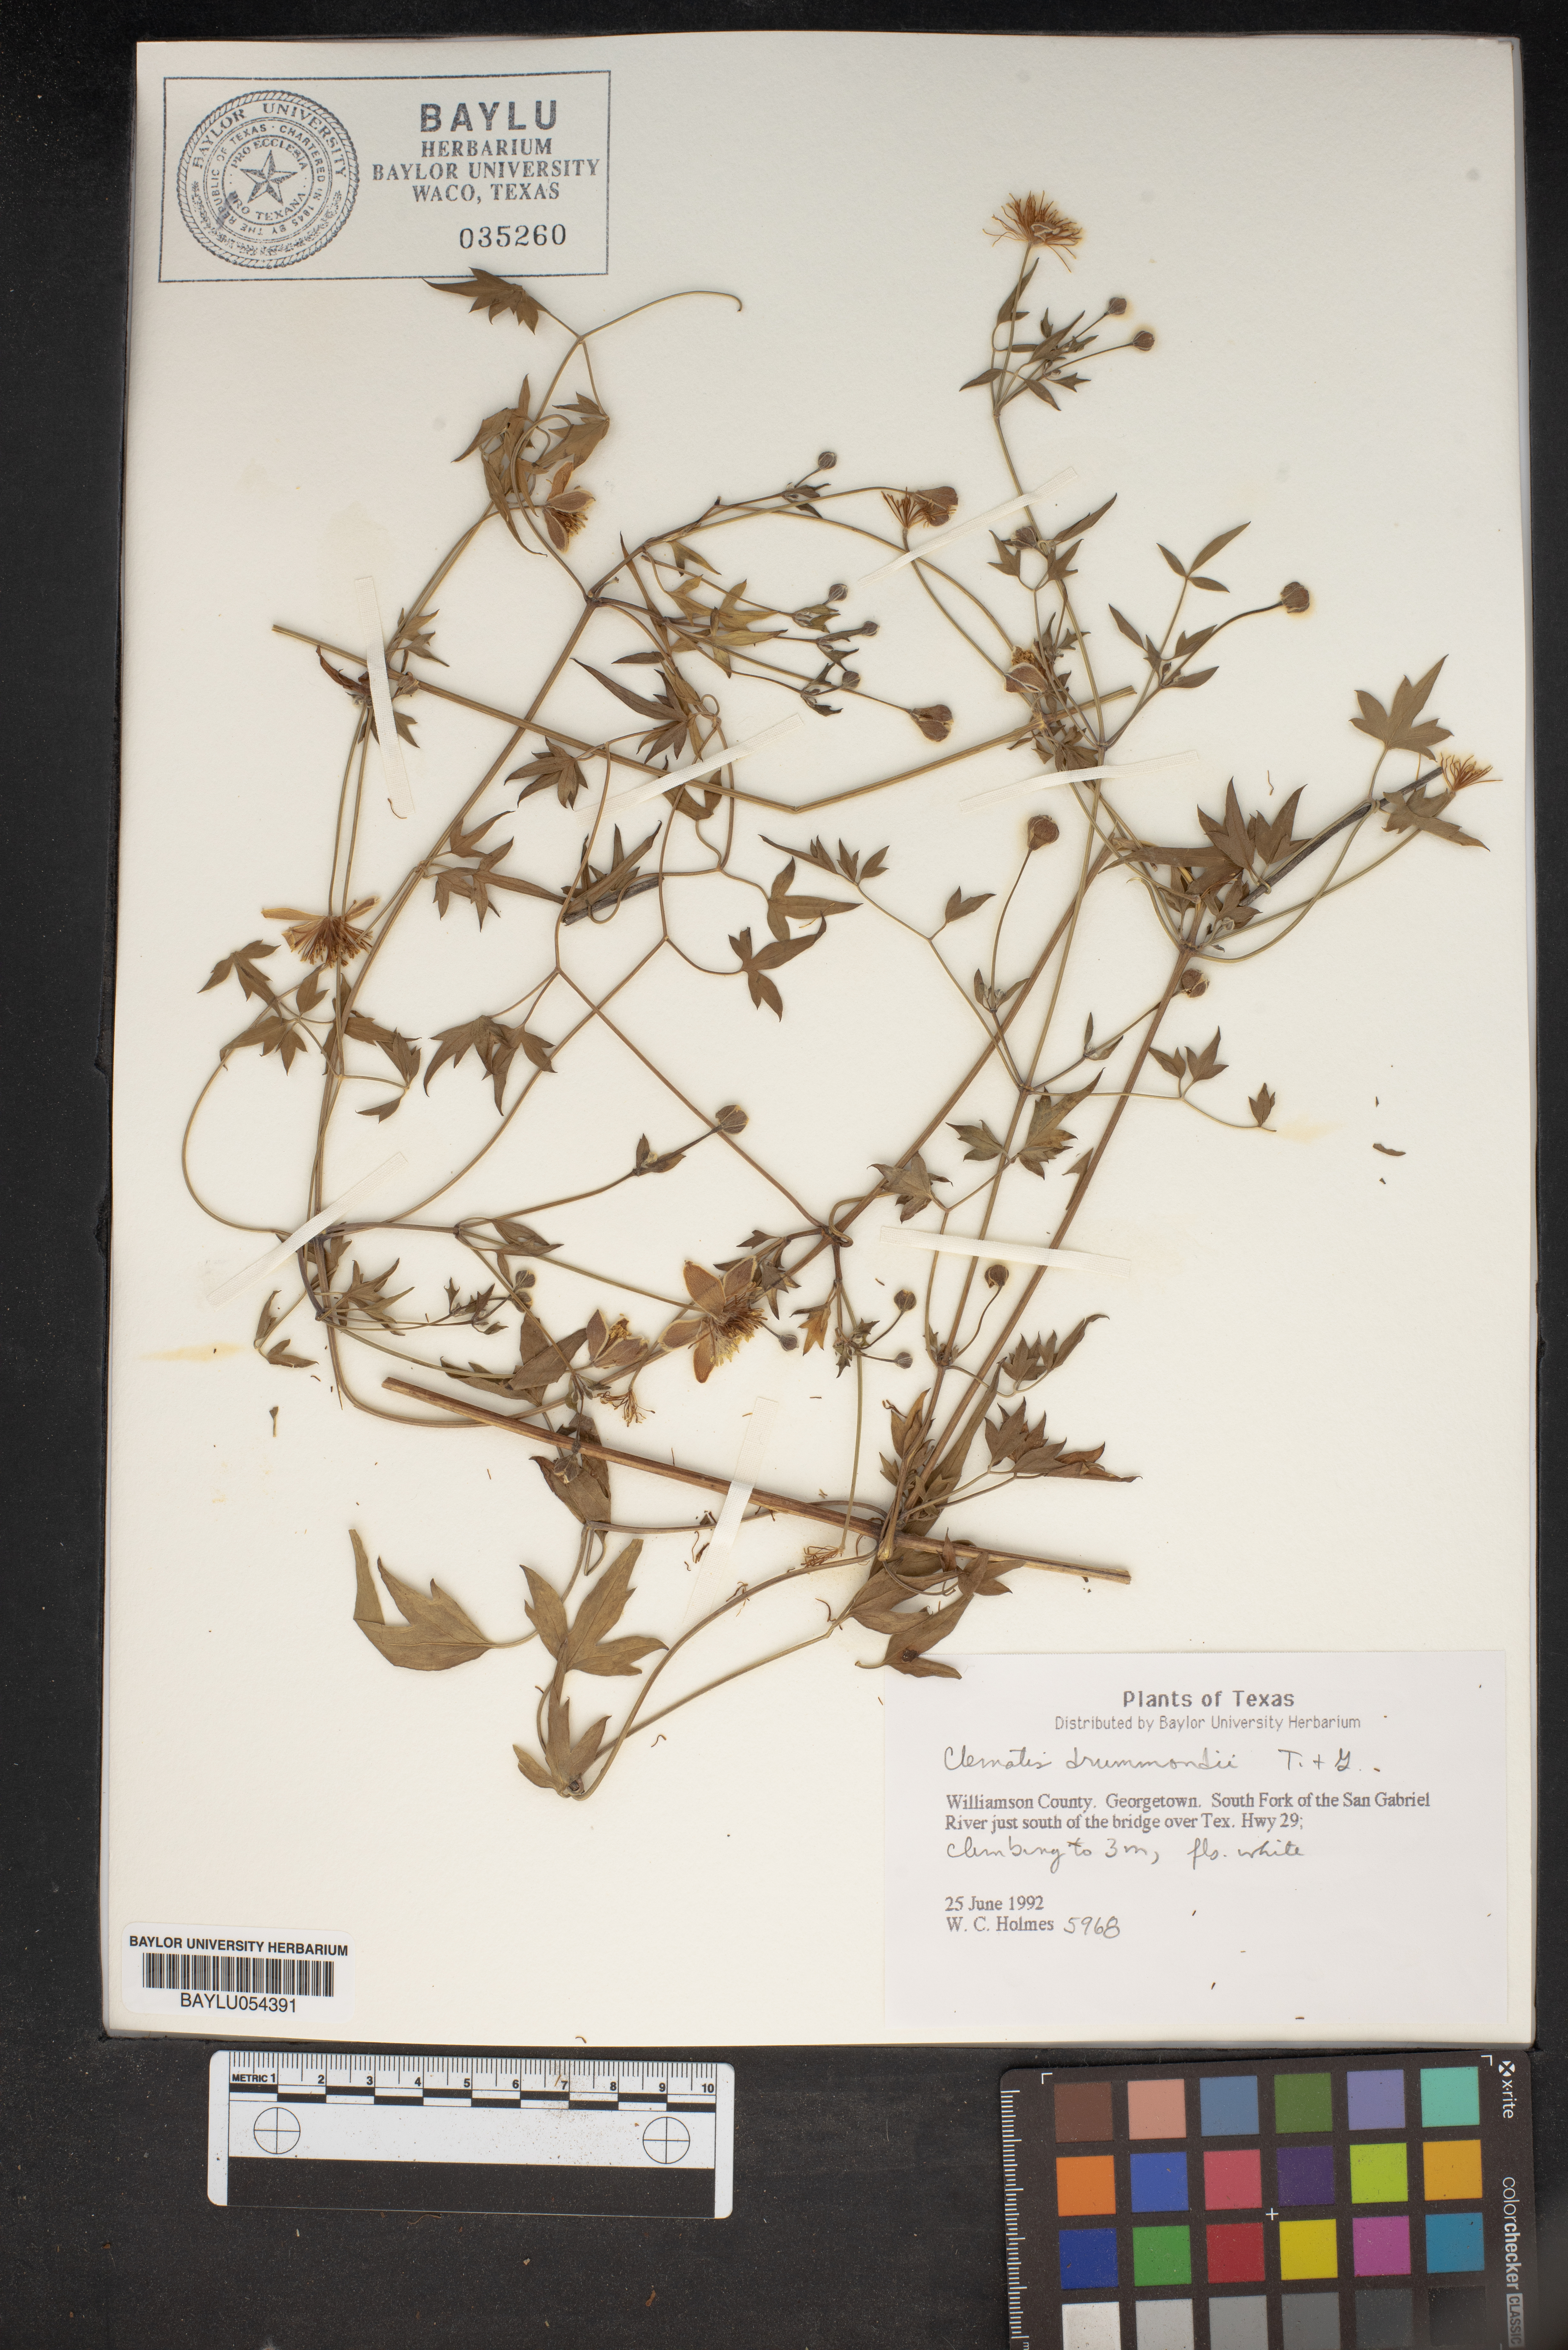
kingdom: Plantae
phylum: Tracheophyta
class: Magnoliopsida
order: Ranunculales
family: Ranunculaceae
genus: Clematis
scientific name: Clematis drummondii
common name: Texas virgin's bower
